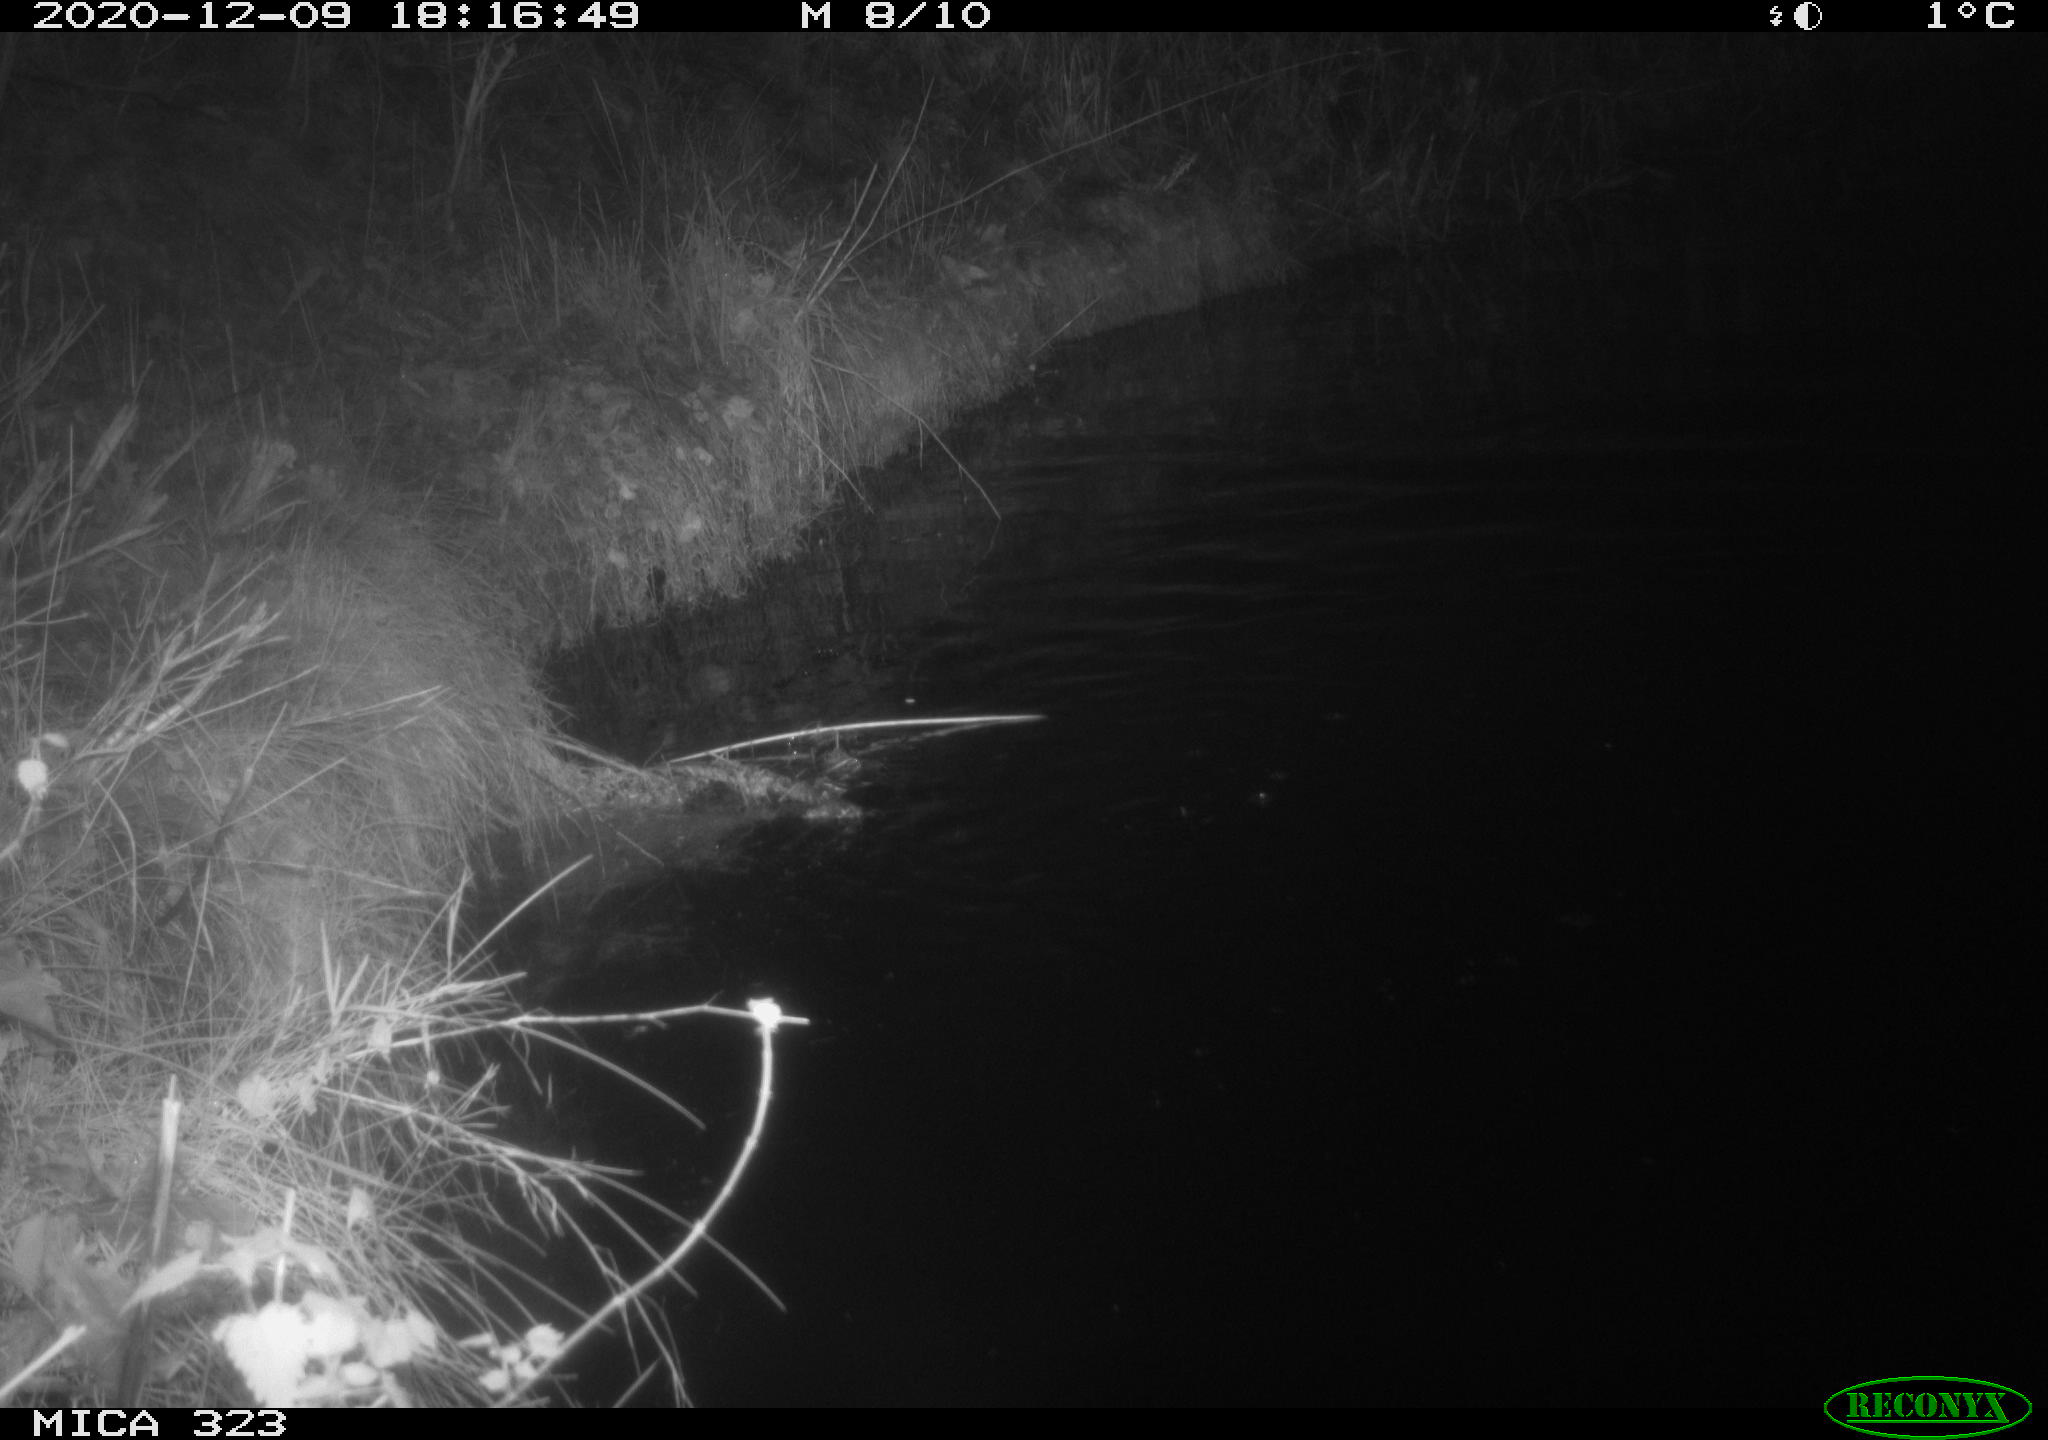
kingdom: Animalia
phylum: Chordata
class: Mammalia
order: Rodentia
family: Myocastoridae
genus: Myocastor
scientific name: Myocastor coypus
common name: Coypu
